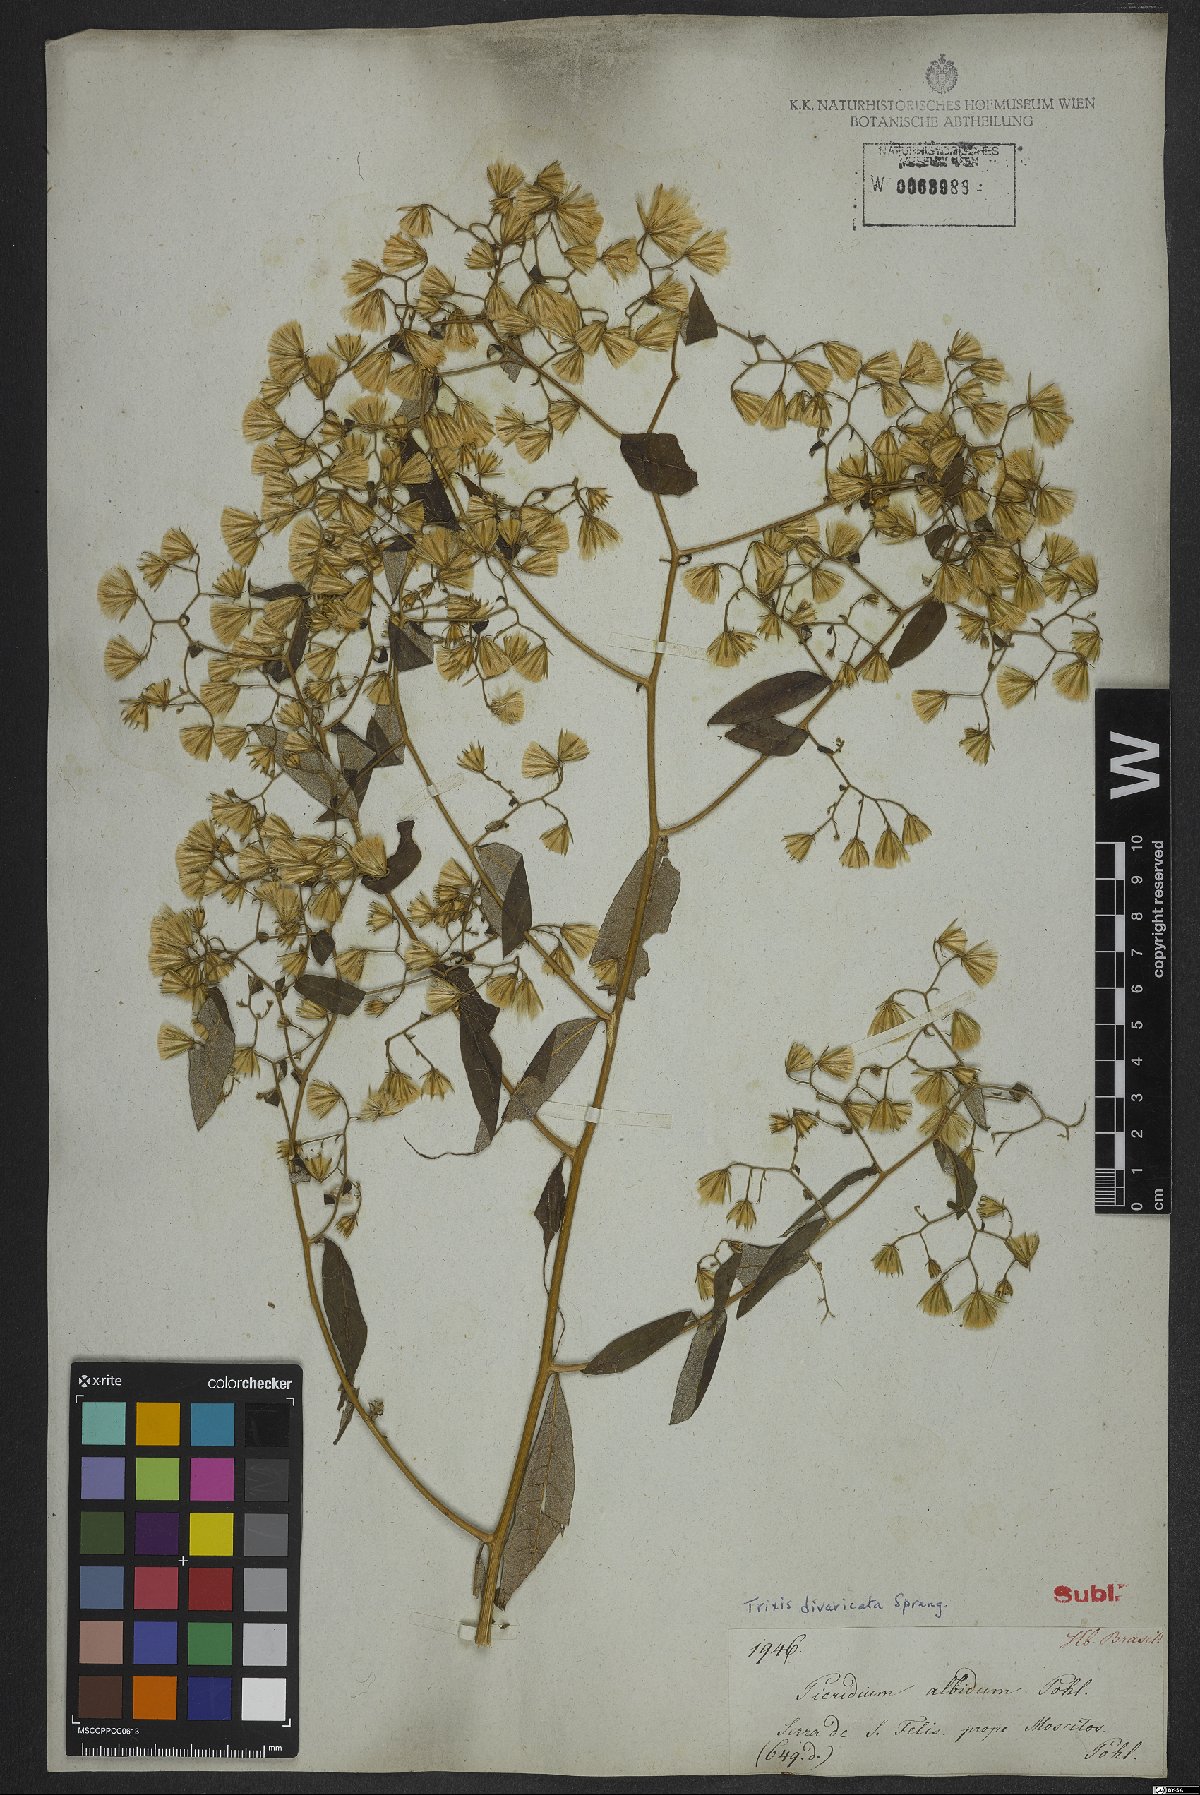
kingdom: Plantae
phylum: Tracheophyta
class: Magnoliopsida
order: Asterales
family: Asteraceae
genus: Trixis
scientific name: Trixis divaricata
